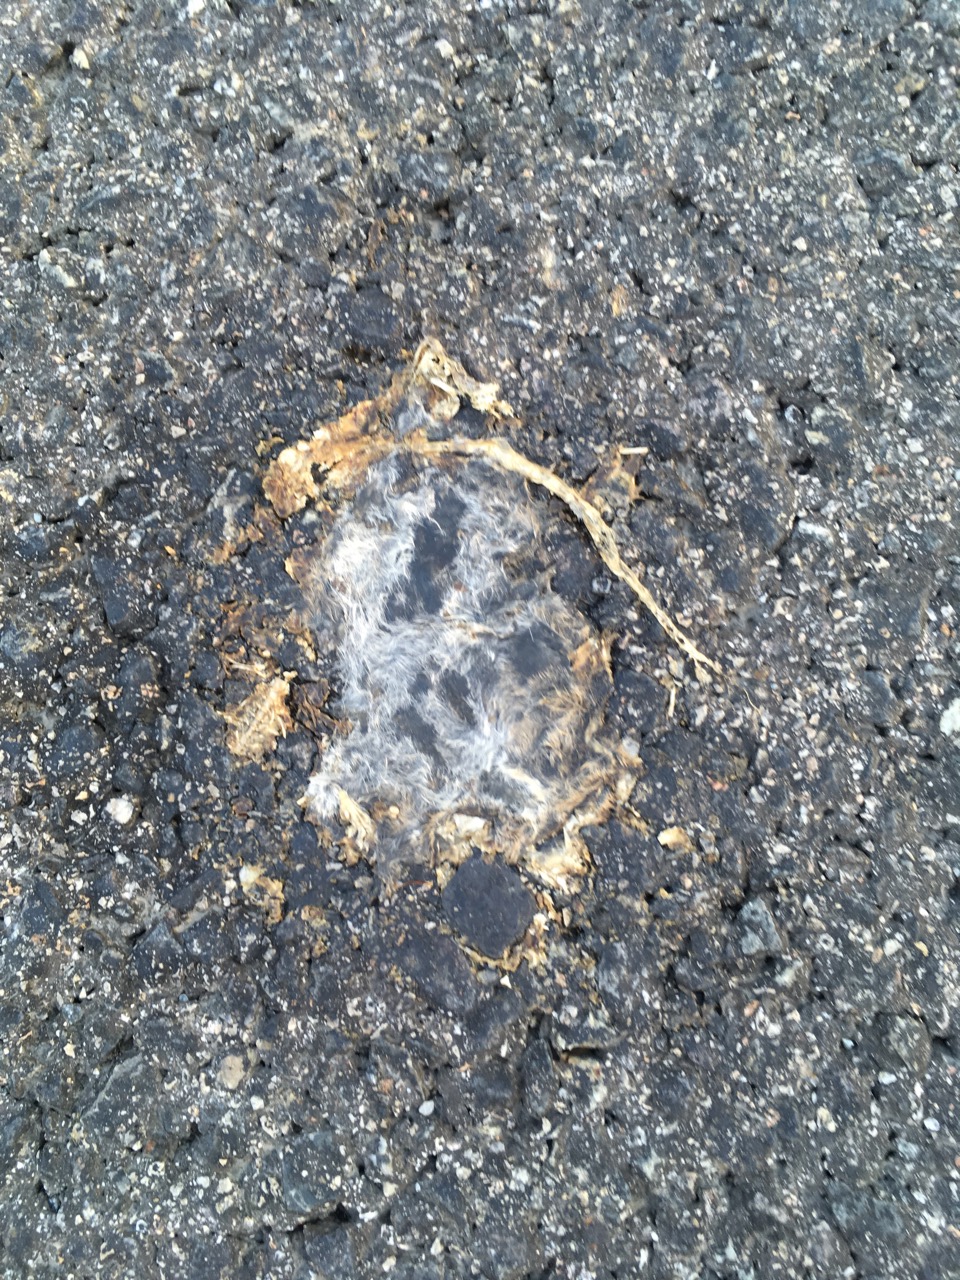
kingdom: Animalia
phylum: Chordata
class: Mammalia
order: Rodentia
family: Muridae
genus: Apodemus
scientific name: Apodemus
